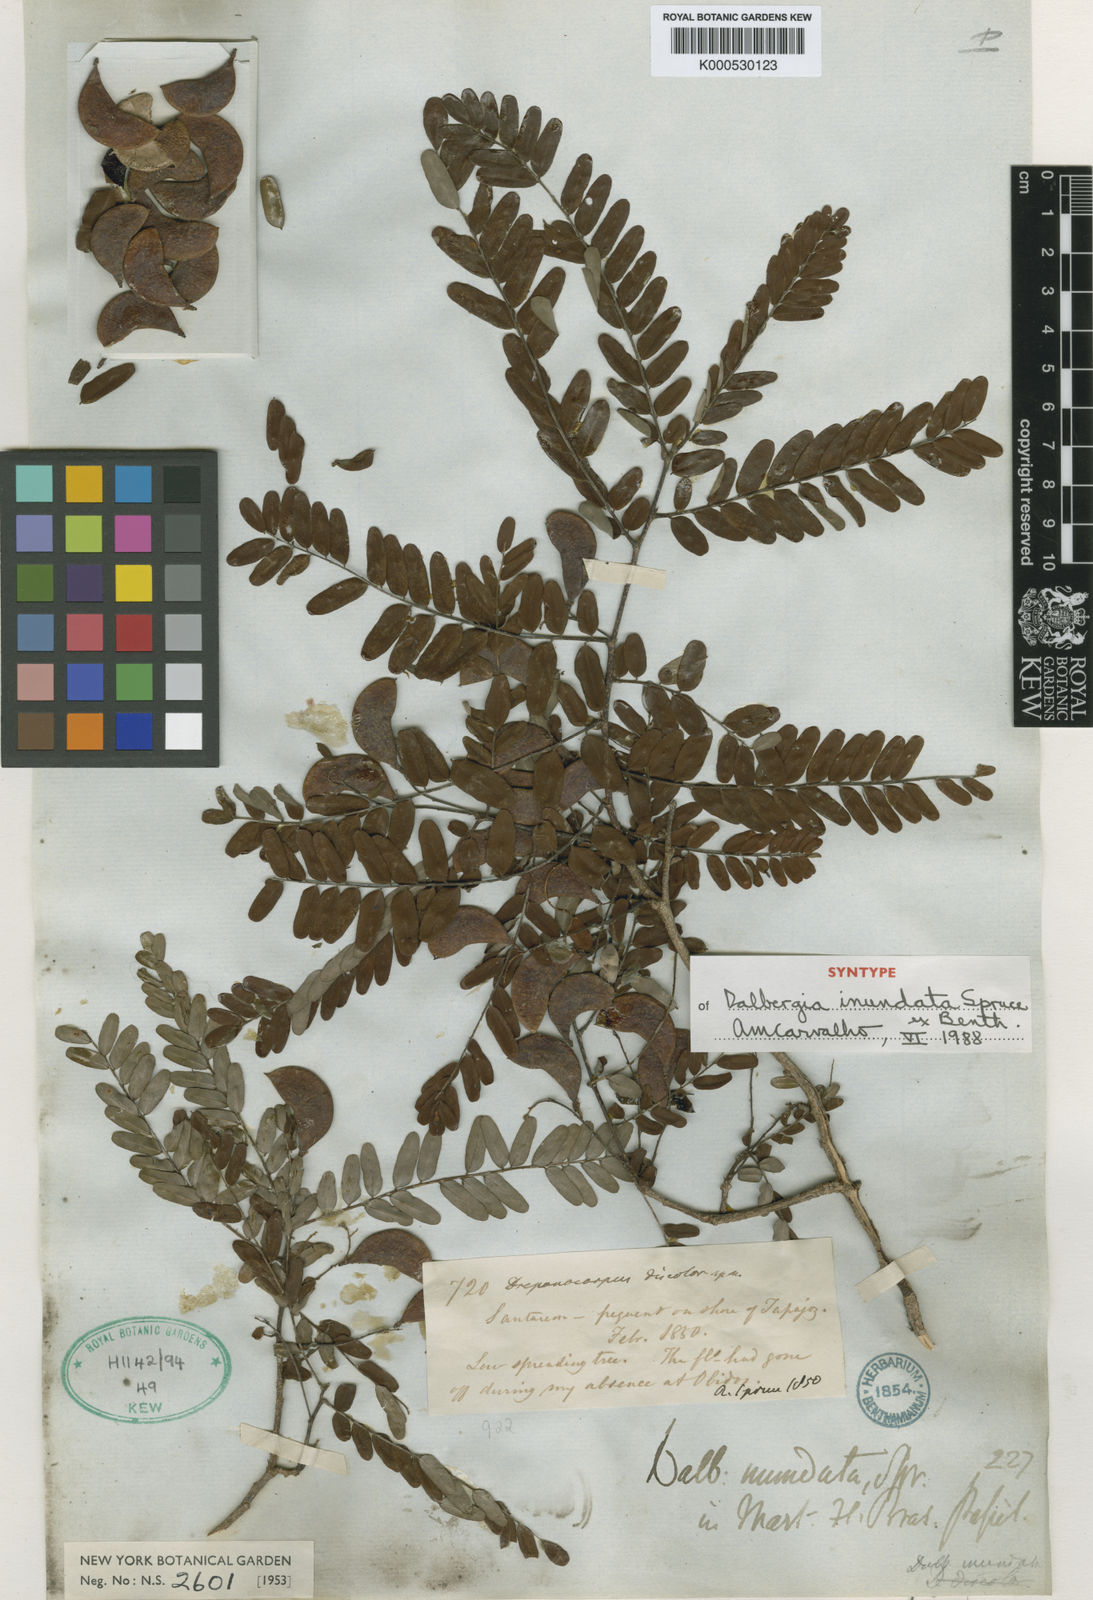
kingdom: Plantae
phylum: Tracheophyta
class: Magnoliopsida
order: Fabales
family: Fabaceae
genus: Dalbergia
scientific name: Dalbergia inundata
